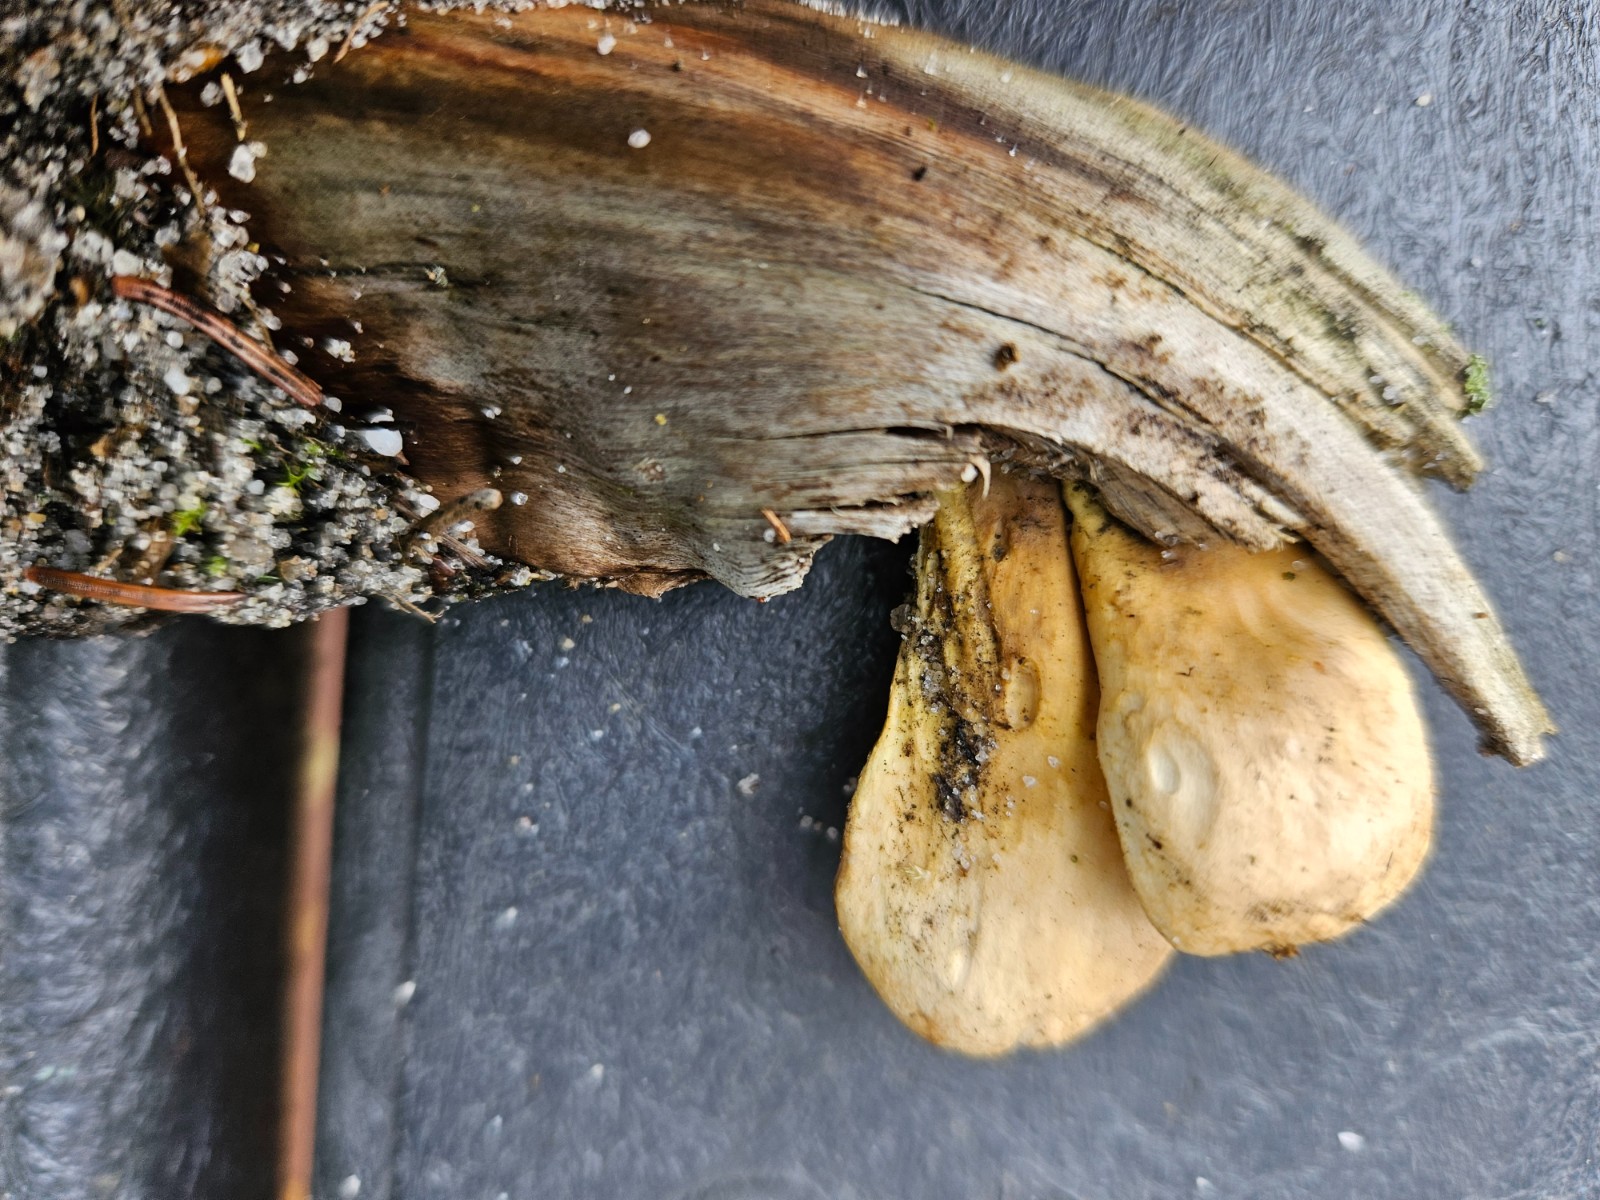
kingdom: Fungi
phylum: Basidiomycota
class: Agaricomycetes
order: Boletales
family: Tapinellaceae
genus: Tapinella
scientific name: Tapinella panuoides
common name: tømmer-viftesvamp
